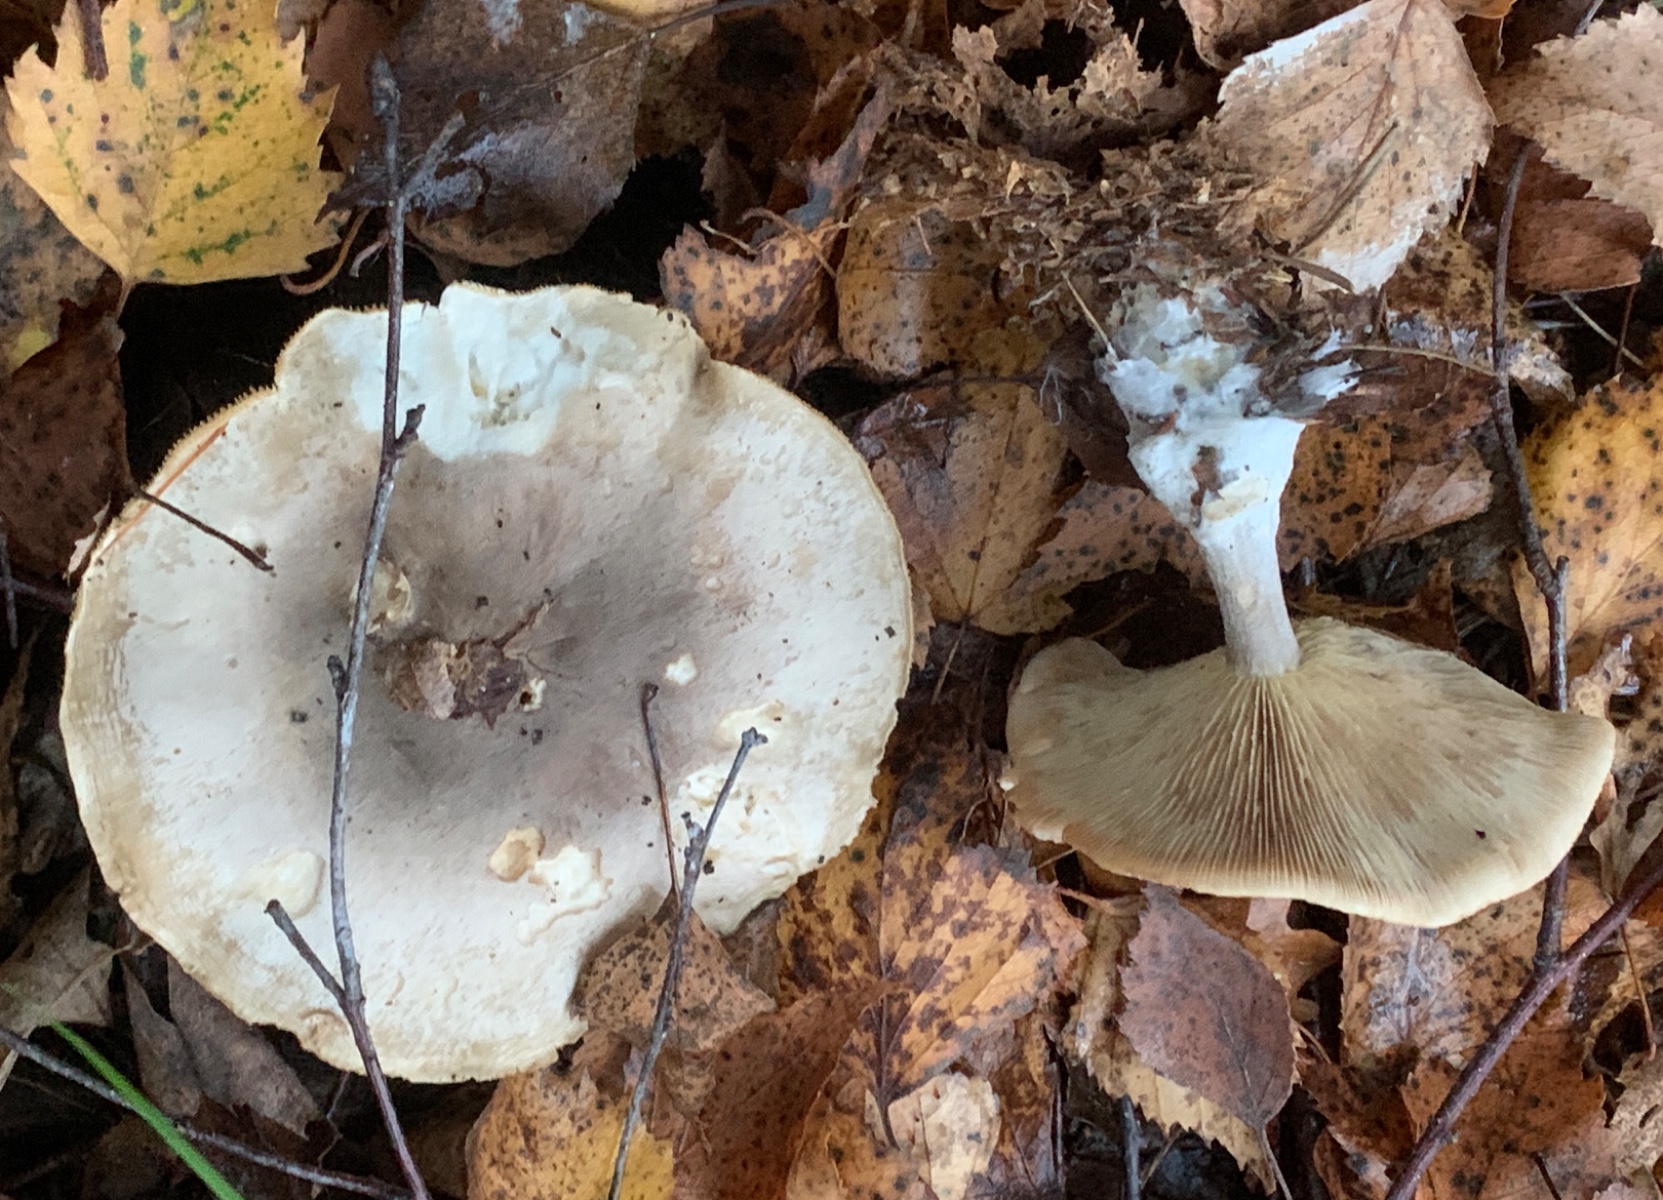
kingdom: Fungi
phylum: Basidiomycota
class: Agaricomycetes
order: Agaricales
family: Tricholomataceae
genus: Clitocybe
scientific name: Clitocybe nebularis
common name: tåge-tragthat
